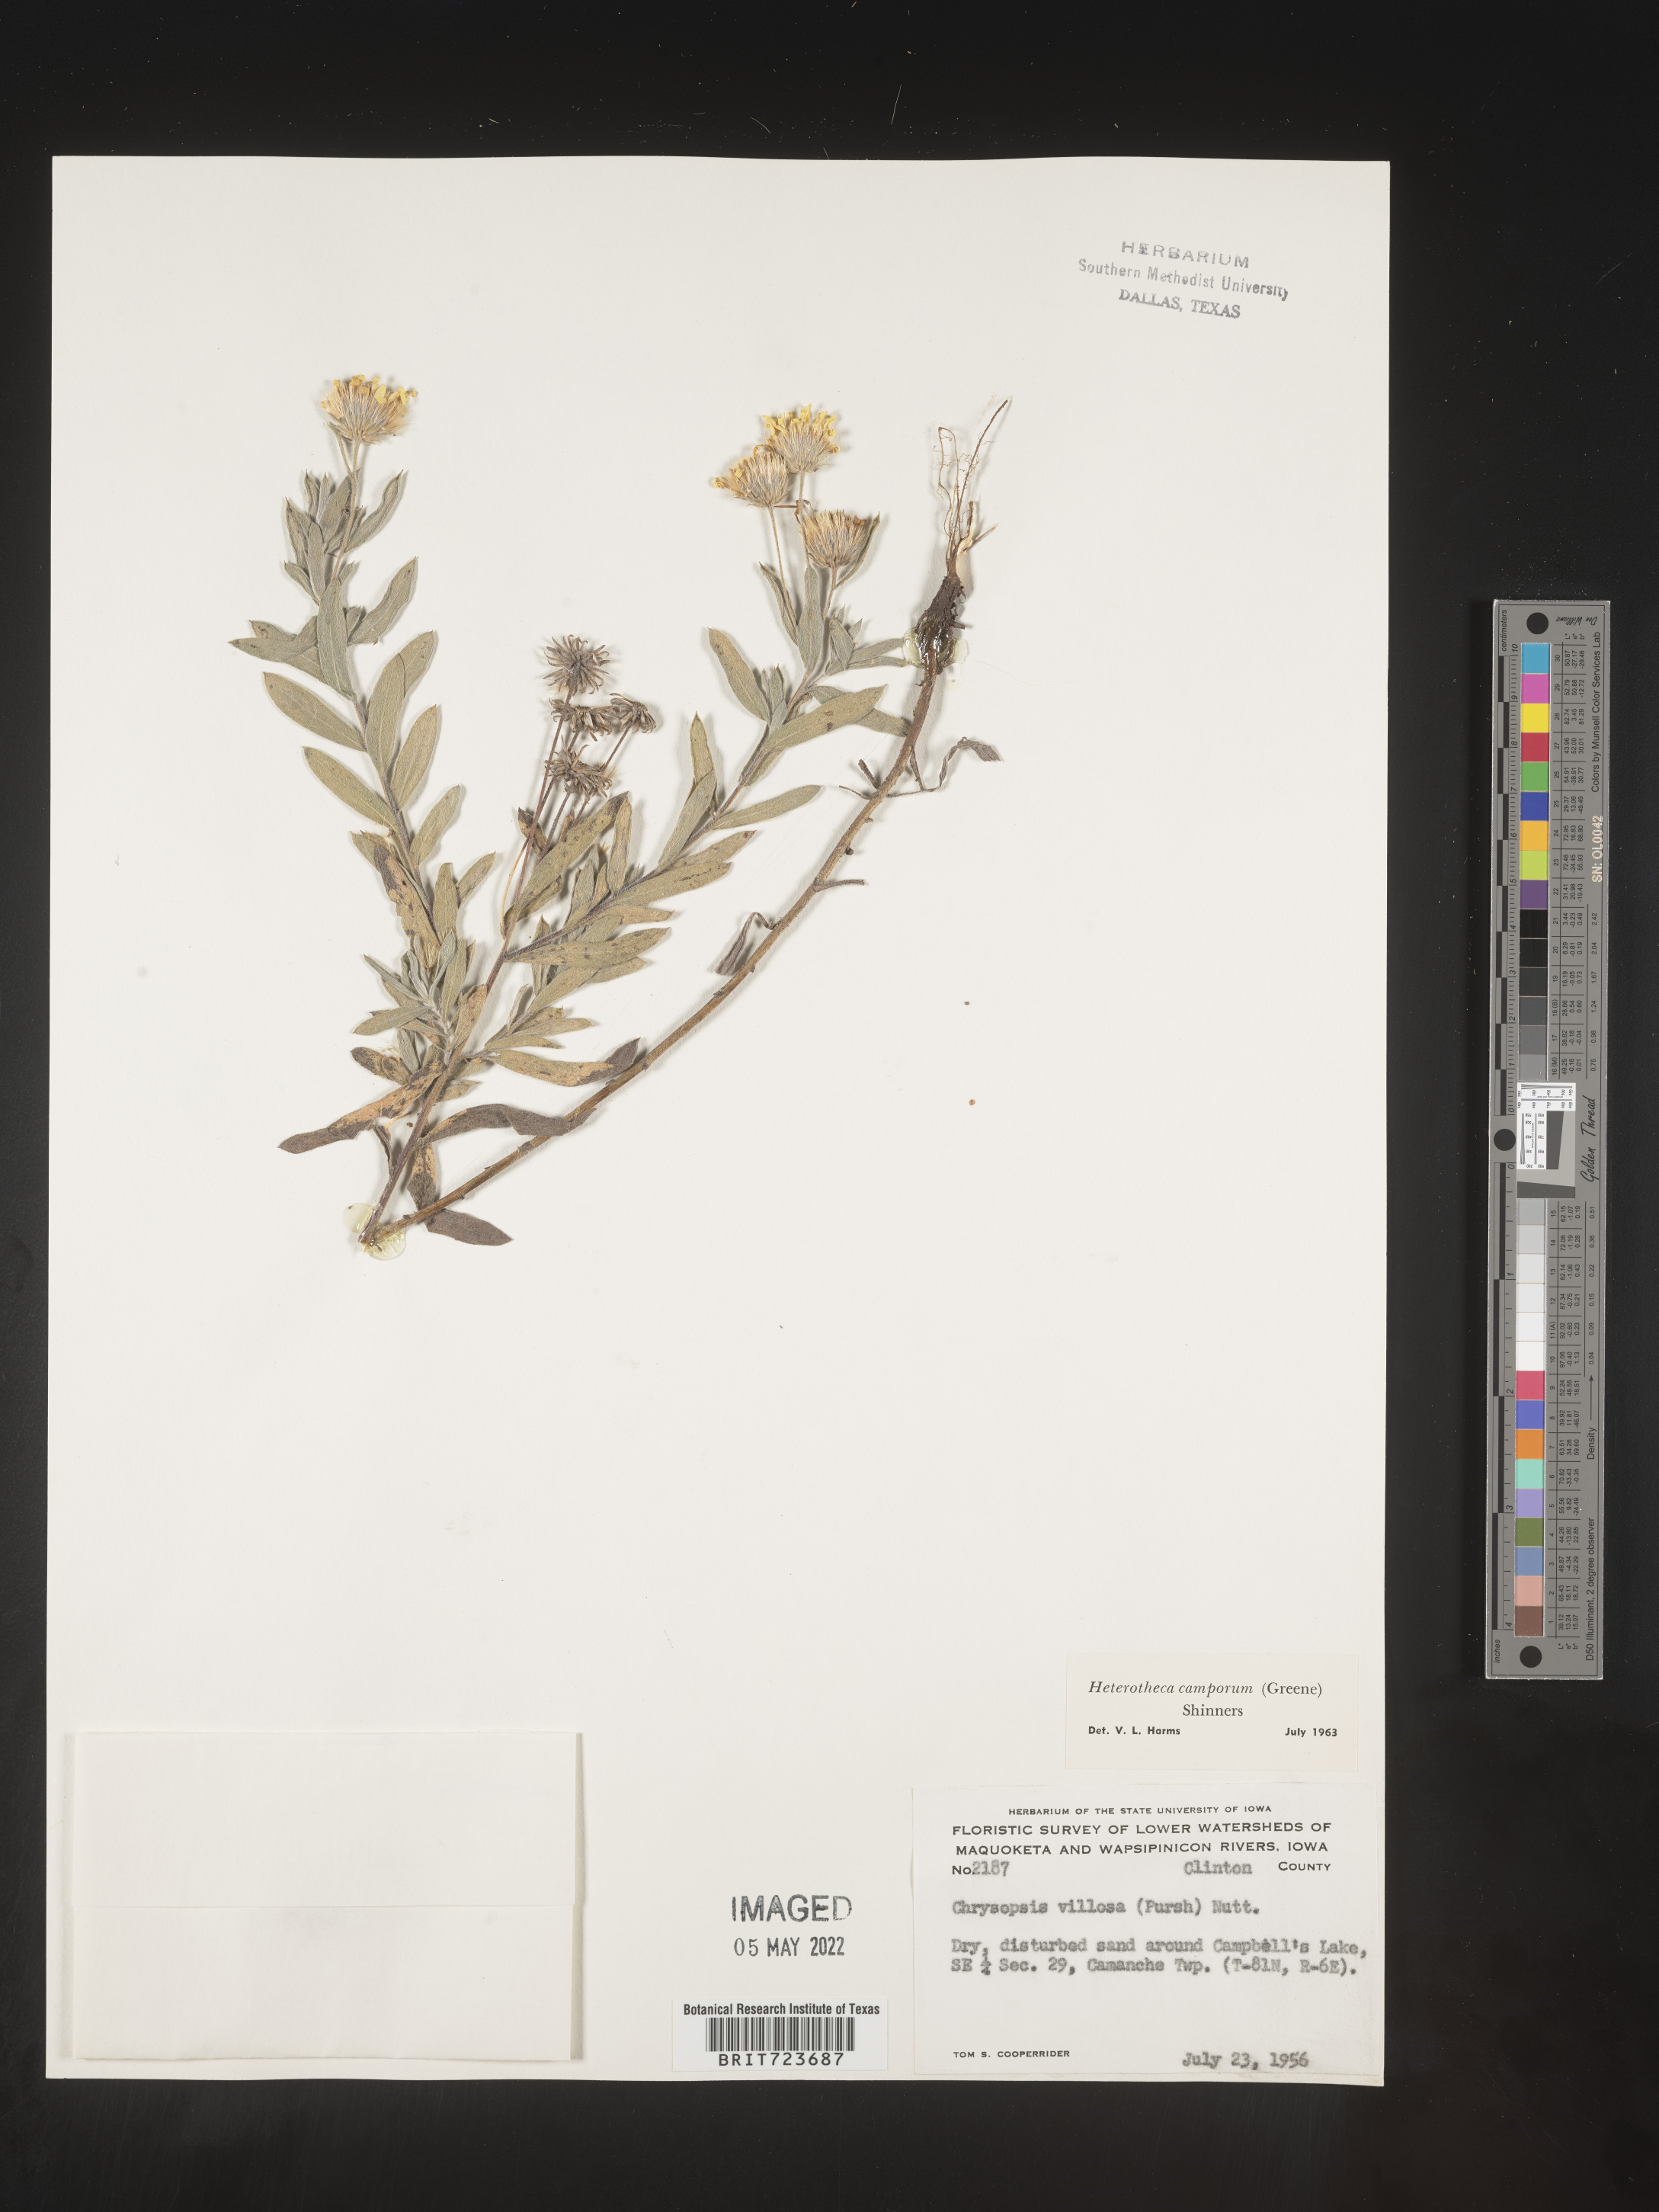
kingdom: Plantae
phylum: Tracheophyta
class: Magnoliopsida
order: Asterales
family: Asteraceae
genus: Heterotheca
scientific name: Heterotheca camporum
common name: Prairie golden-aster
